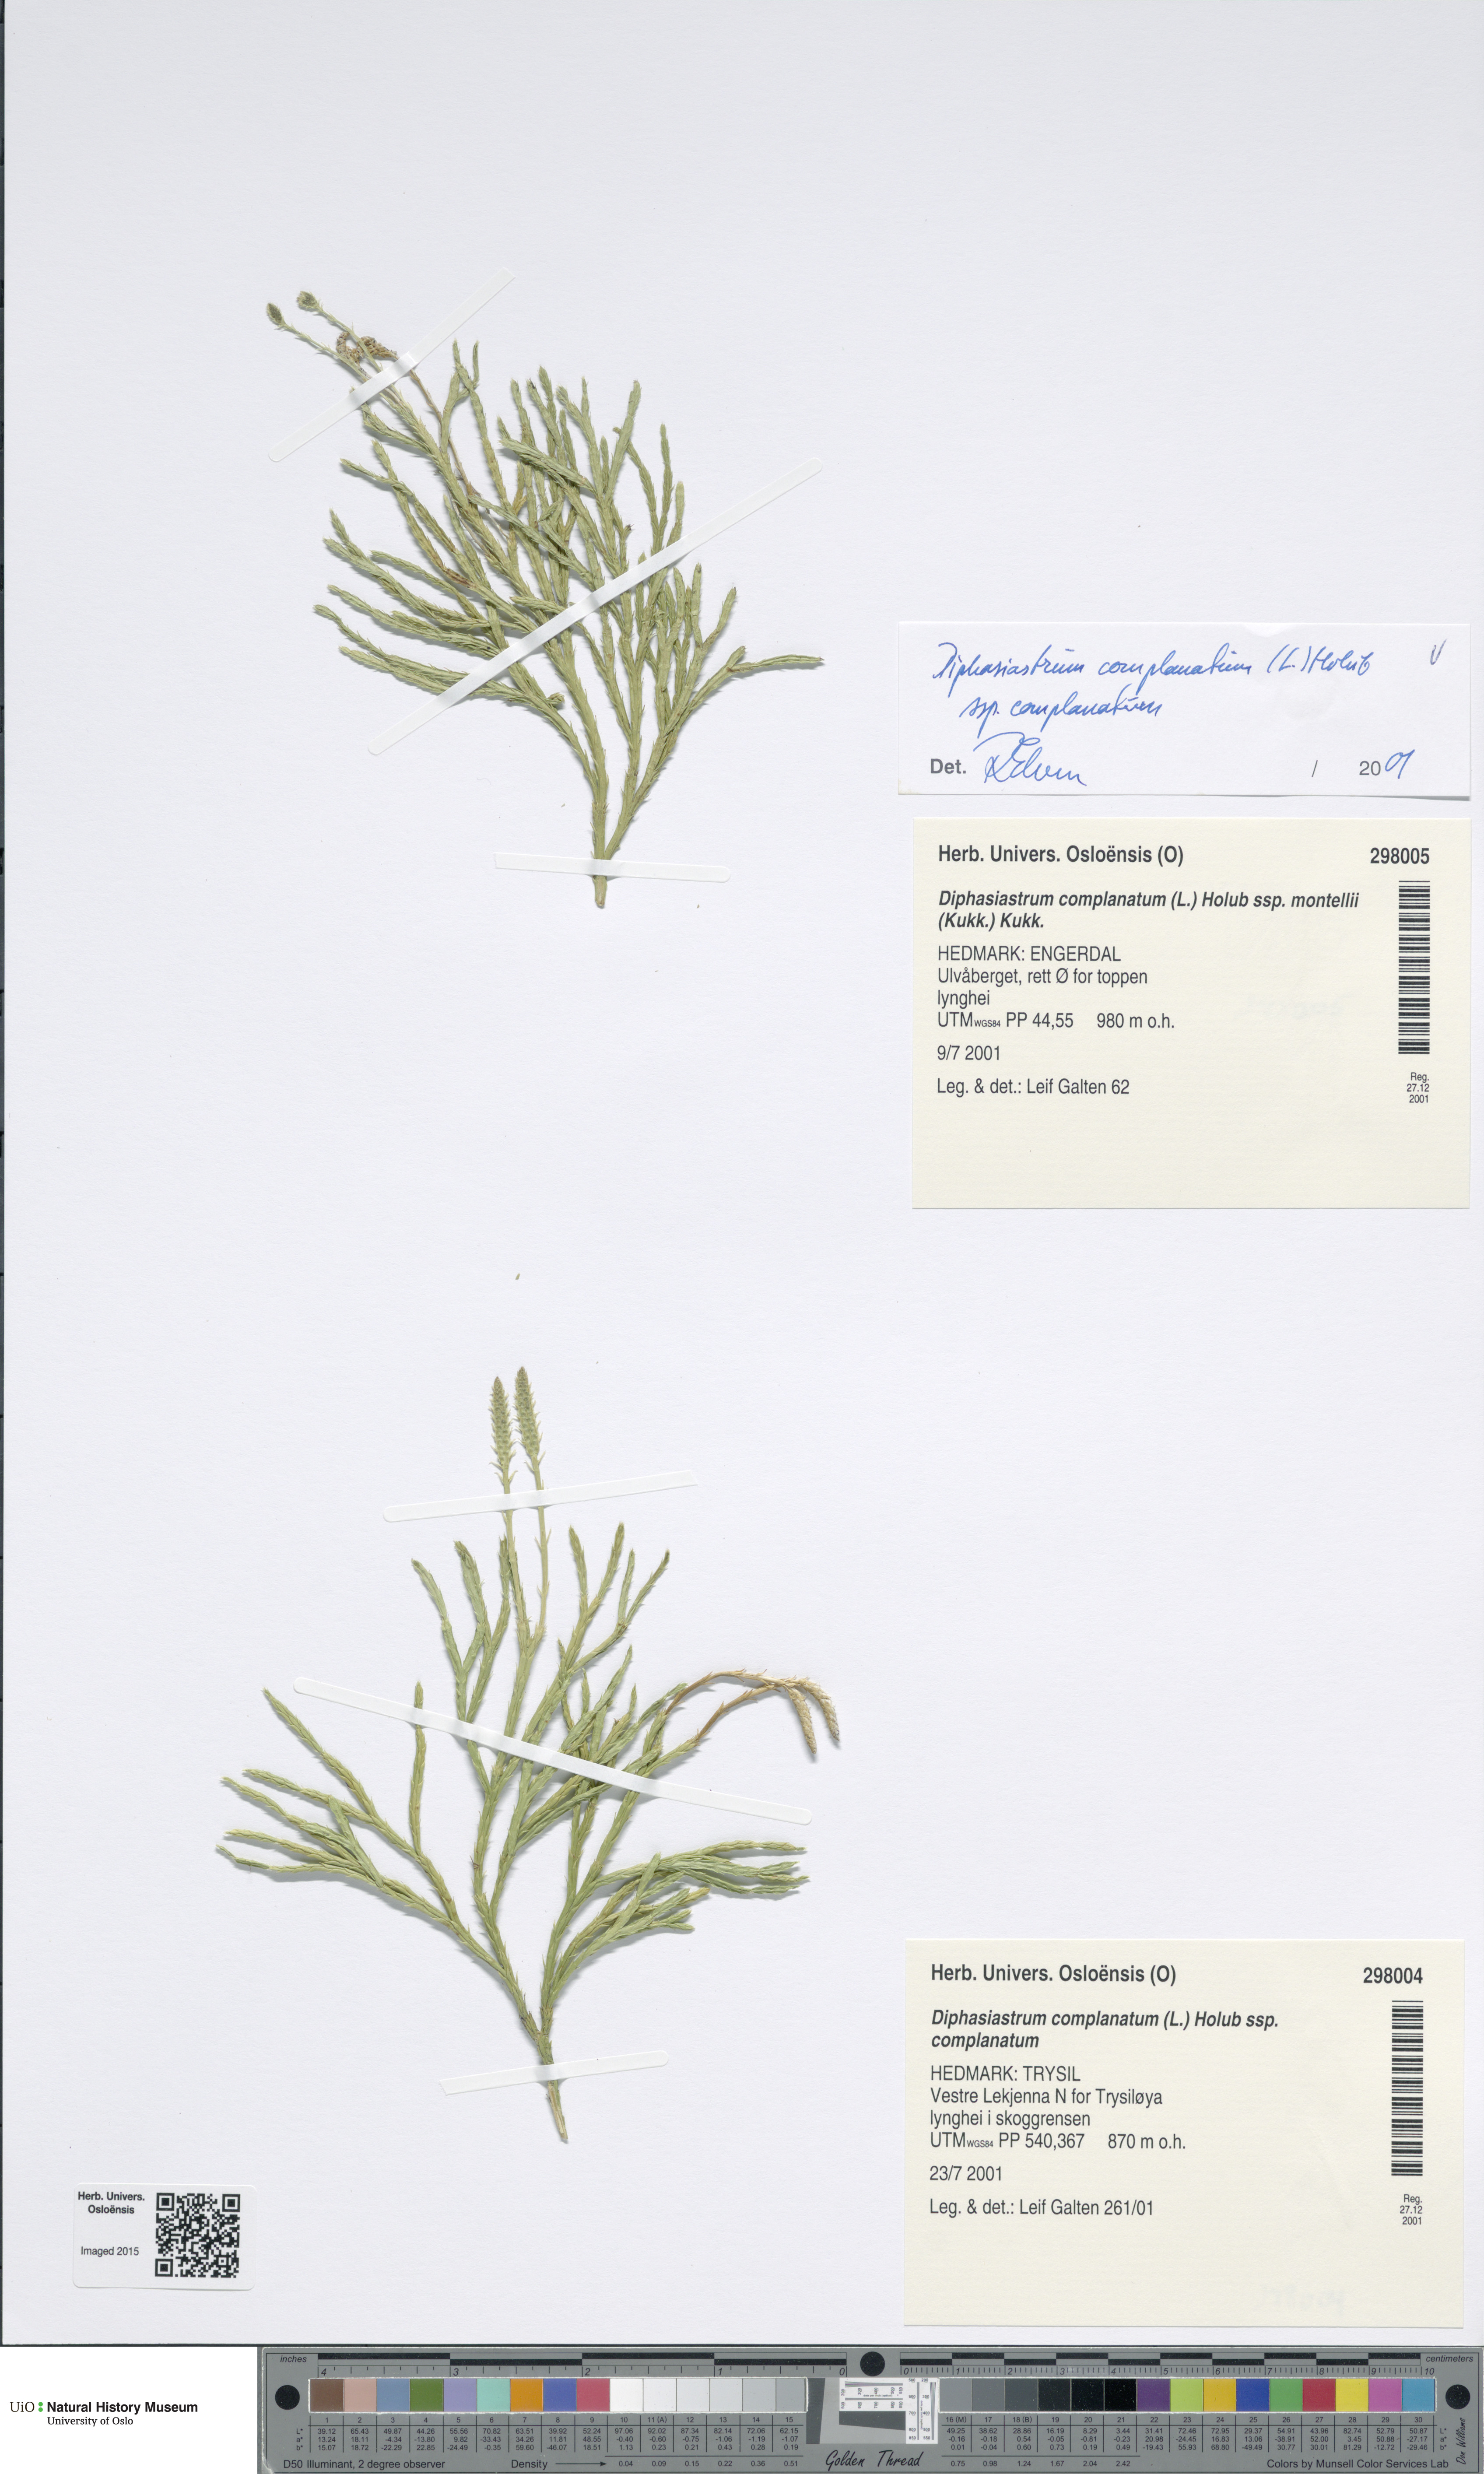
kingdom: Plantae
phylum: Tracheophyta
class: Lycopodiopsida
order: Lycopodiales
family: Lycopodiaceae
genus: Diphasiastrum
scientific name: Diphasiastrum complanatum
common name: Northern running-pine
